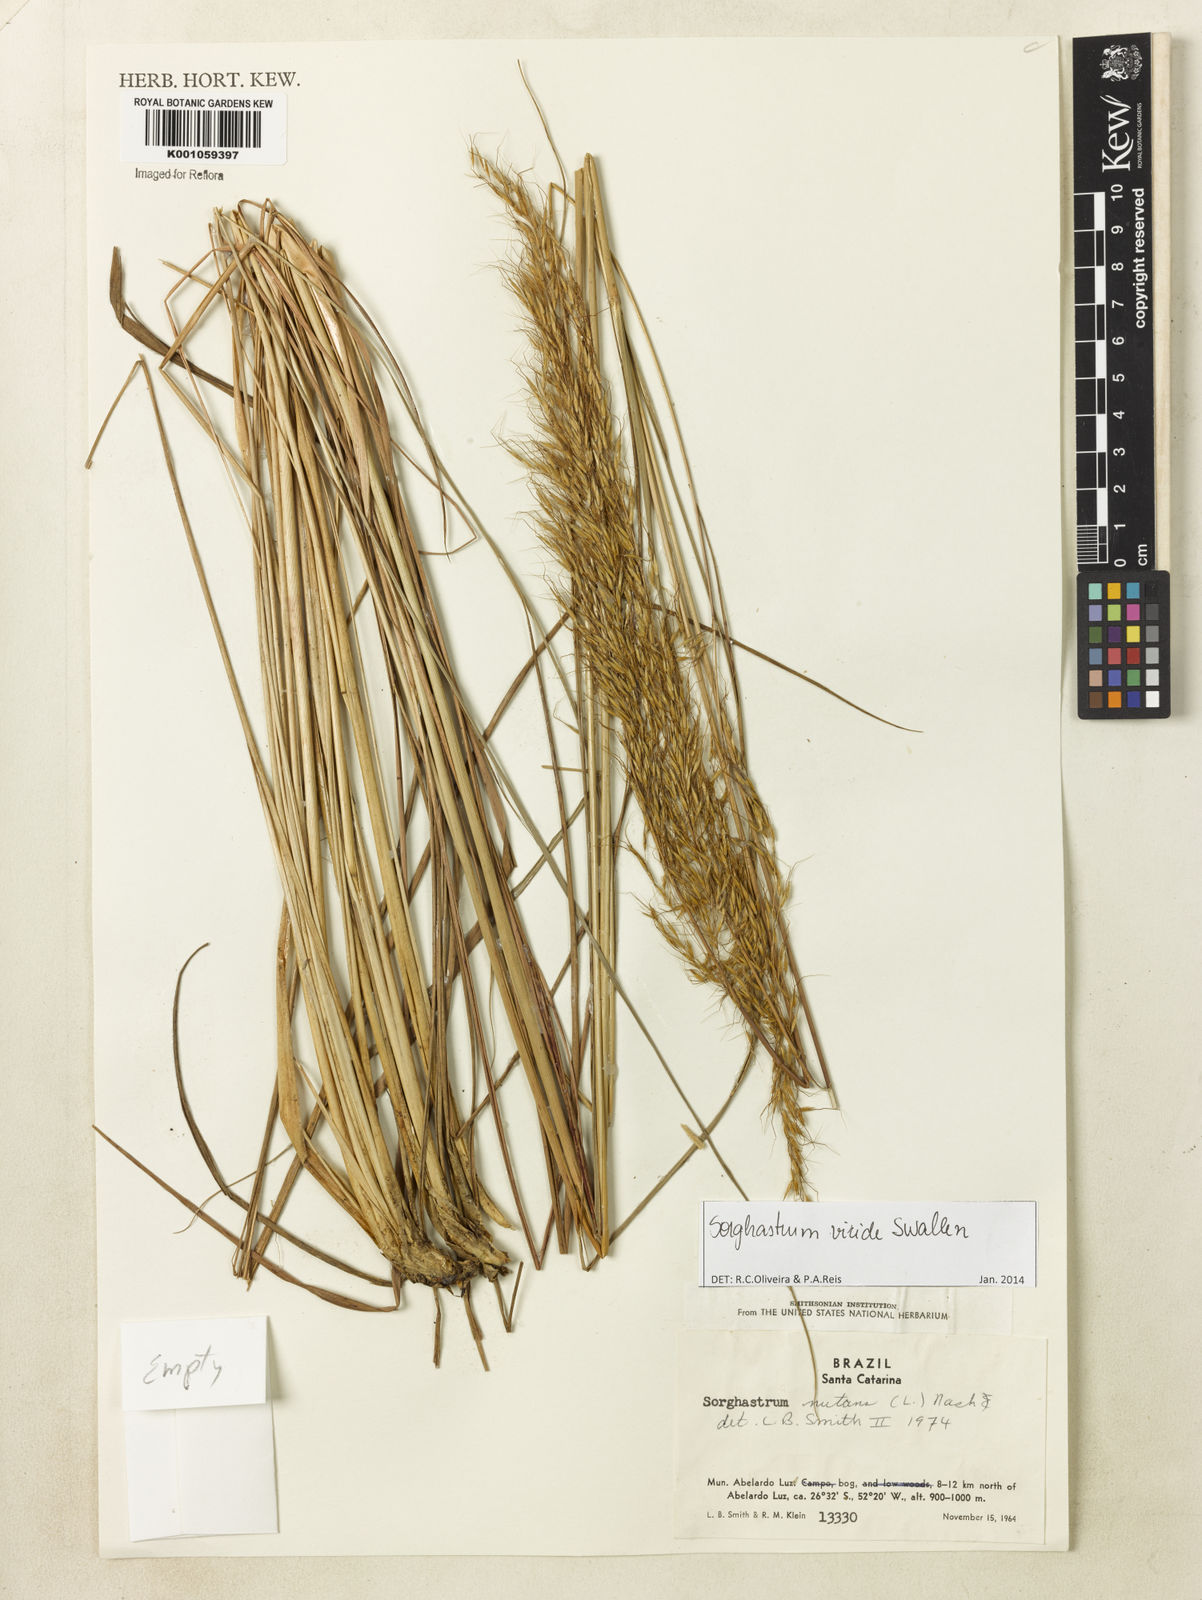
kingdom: Plantae
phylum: Tracheophyta
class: Liliopsida
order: Poales
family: Poaceae
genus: Sorghastrum
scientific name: Sorghastrum viride
